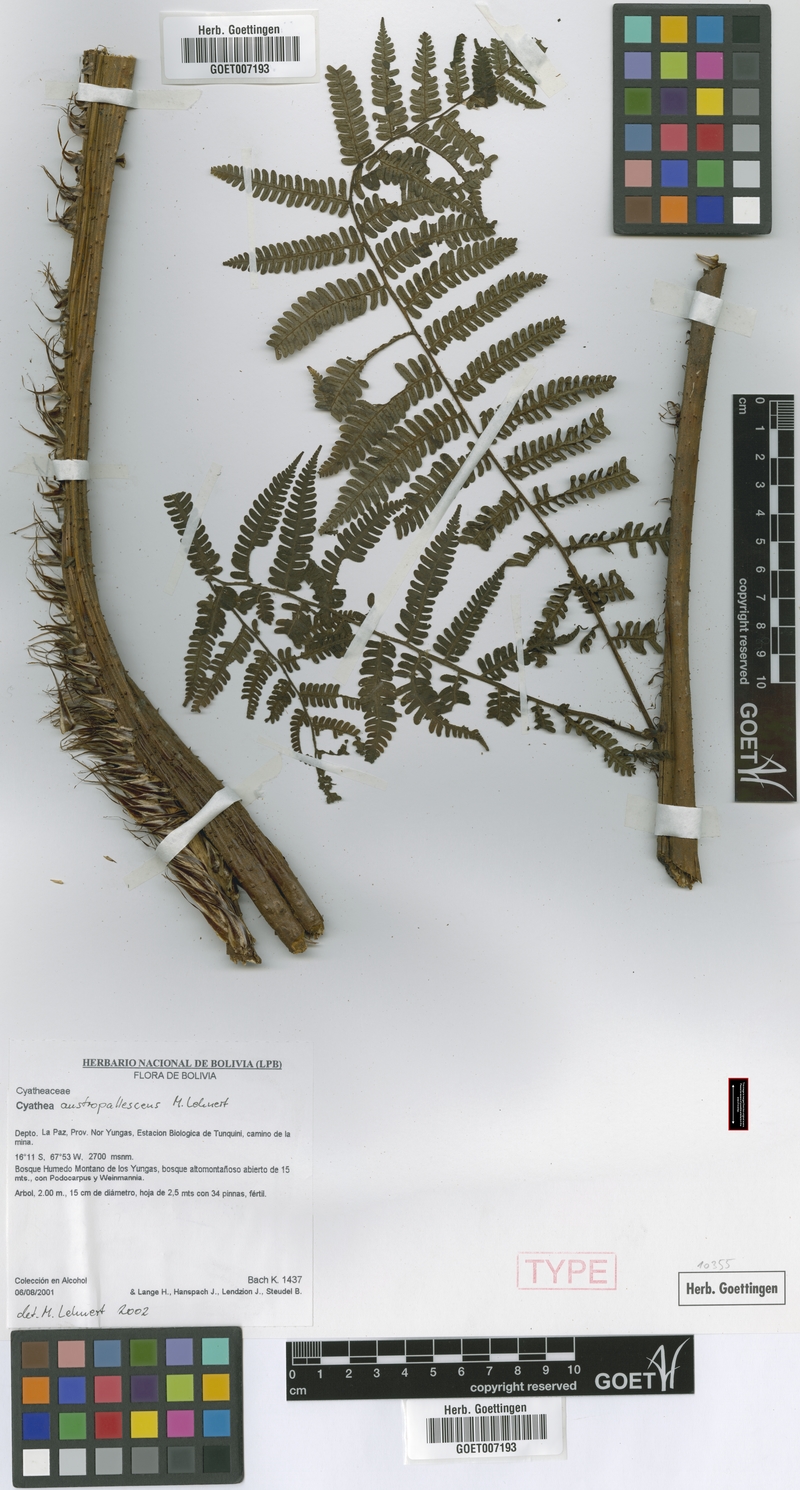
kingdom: Plantae
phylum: Tracheophyta
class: Polypodiopsida
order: Cyatheales
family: Cyatheaceae
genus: Cyathea
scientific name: Cyathea austropallescens
